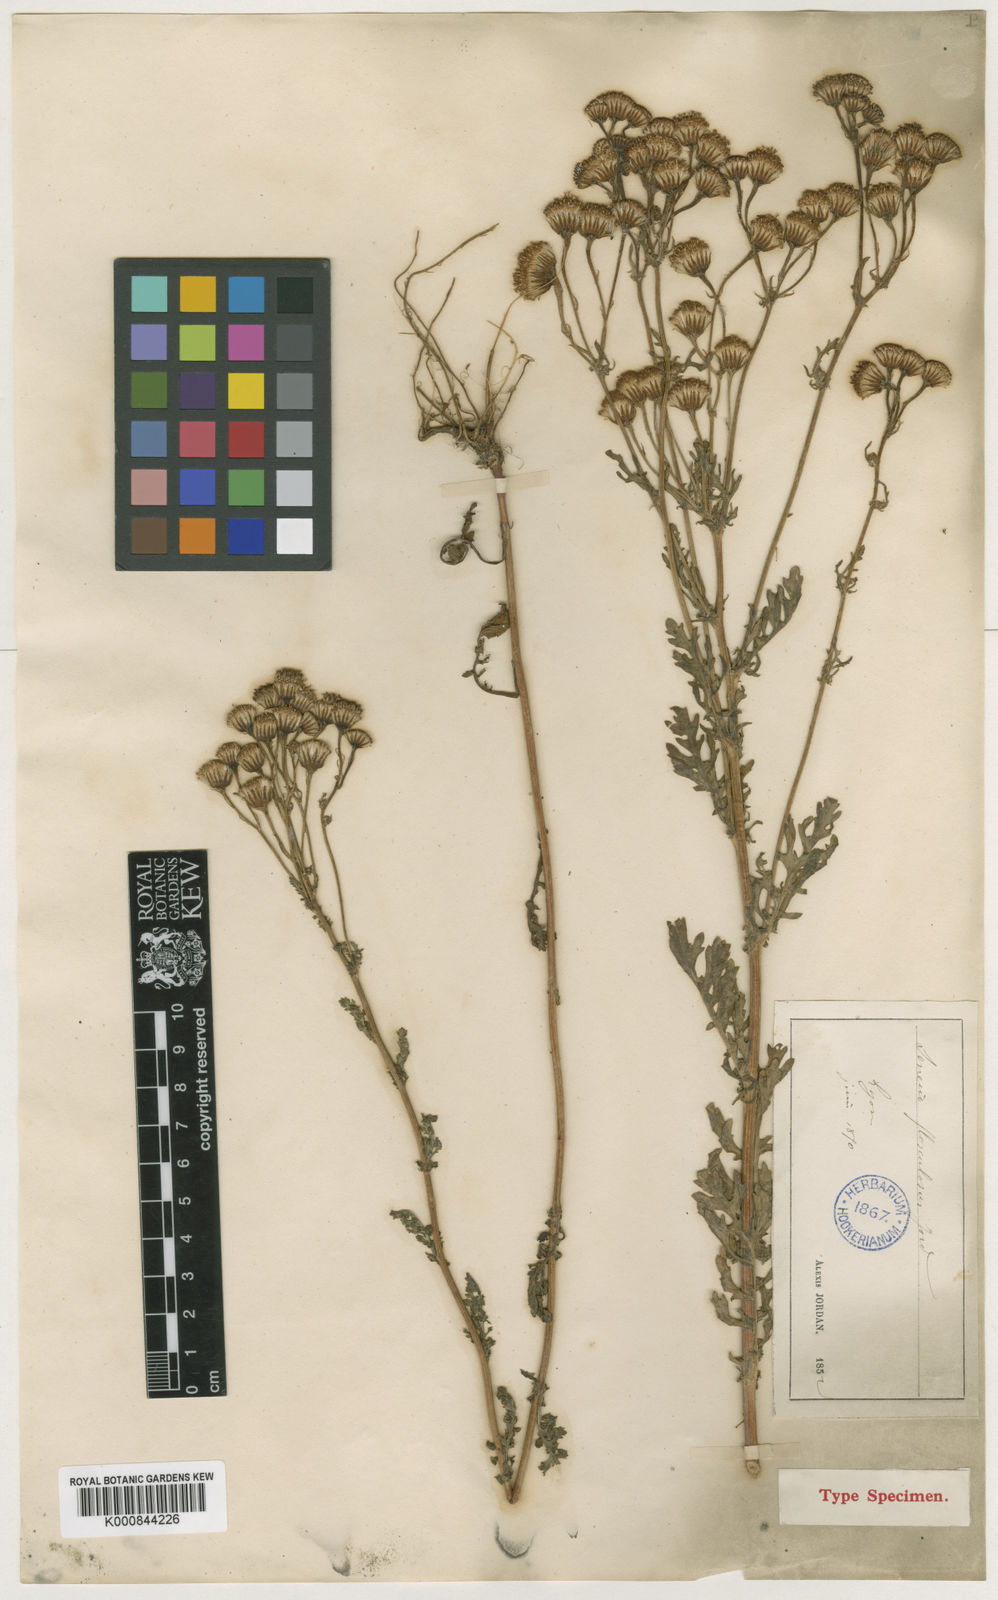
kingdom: Plantae
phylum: Tracheophyta
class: Magnoliopsida
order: Asterales
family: Asteraceae
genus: Jacobaea
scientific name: Jacobaea vulgaris
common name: Stinking willie
